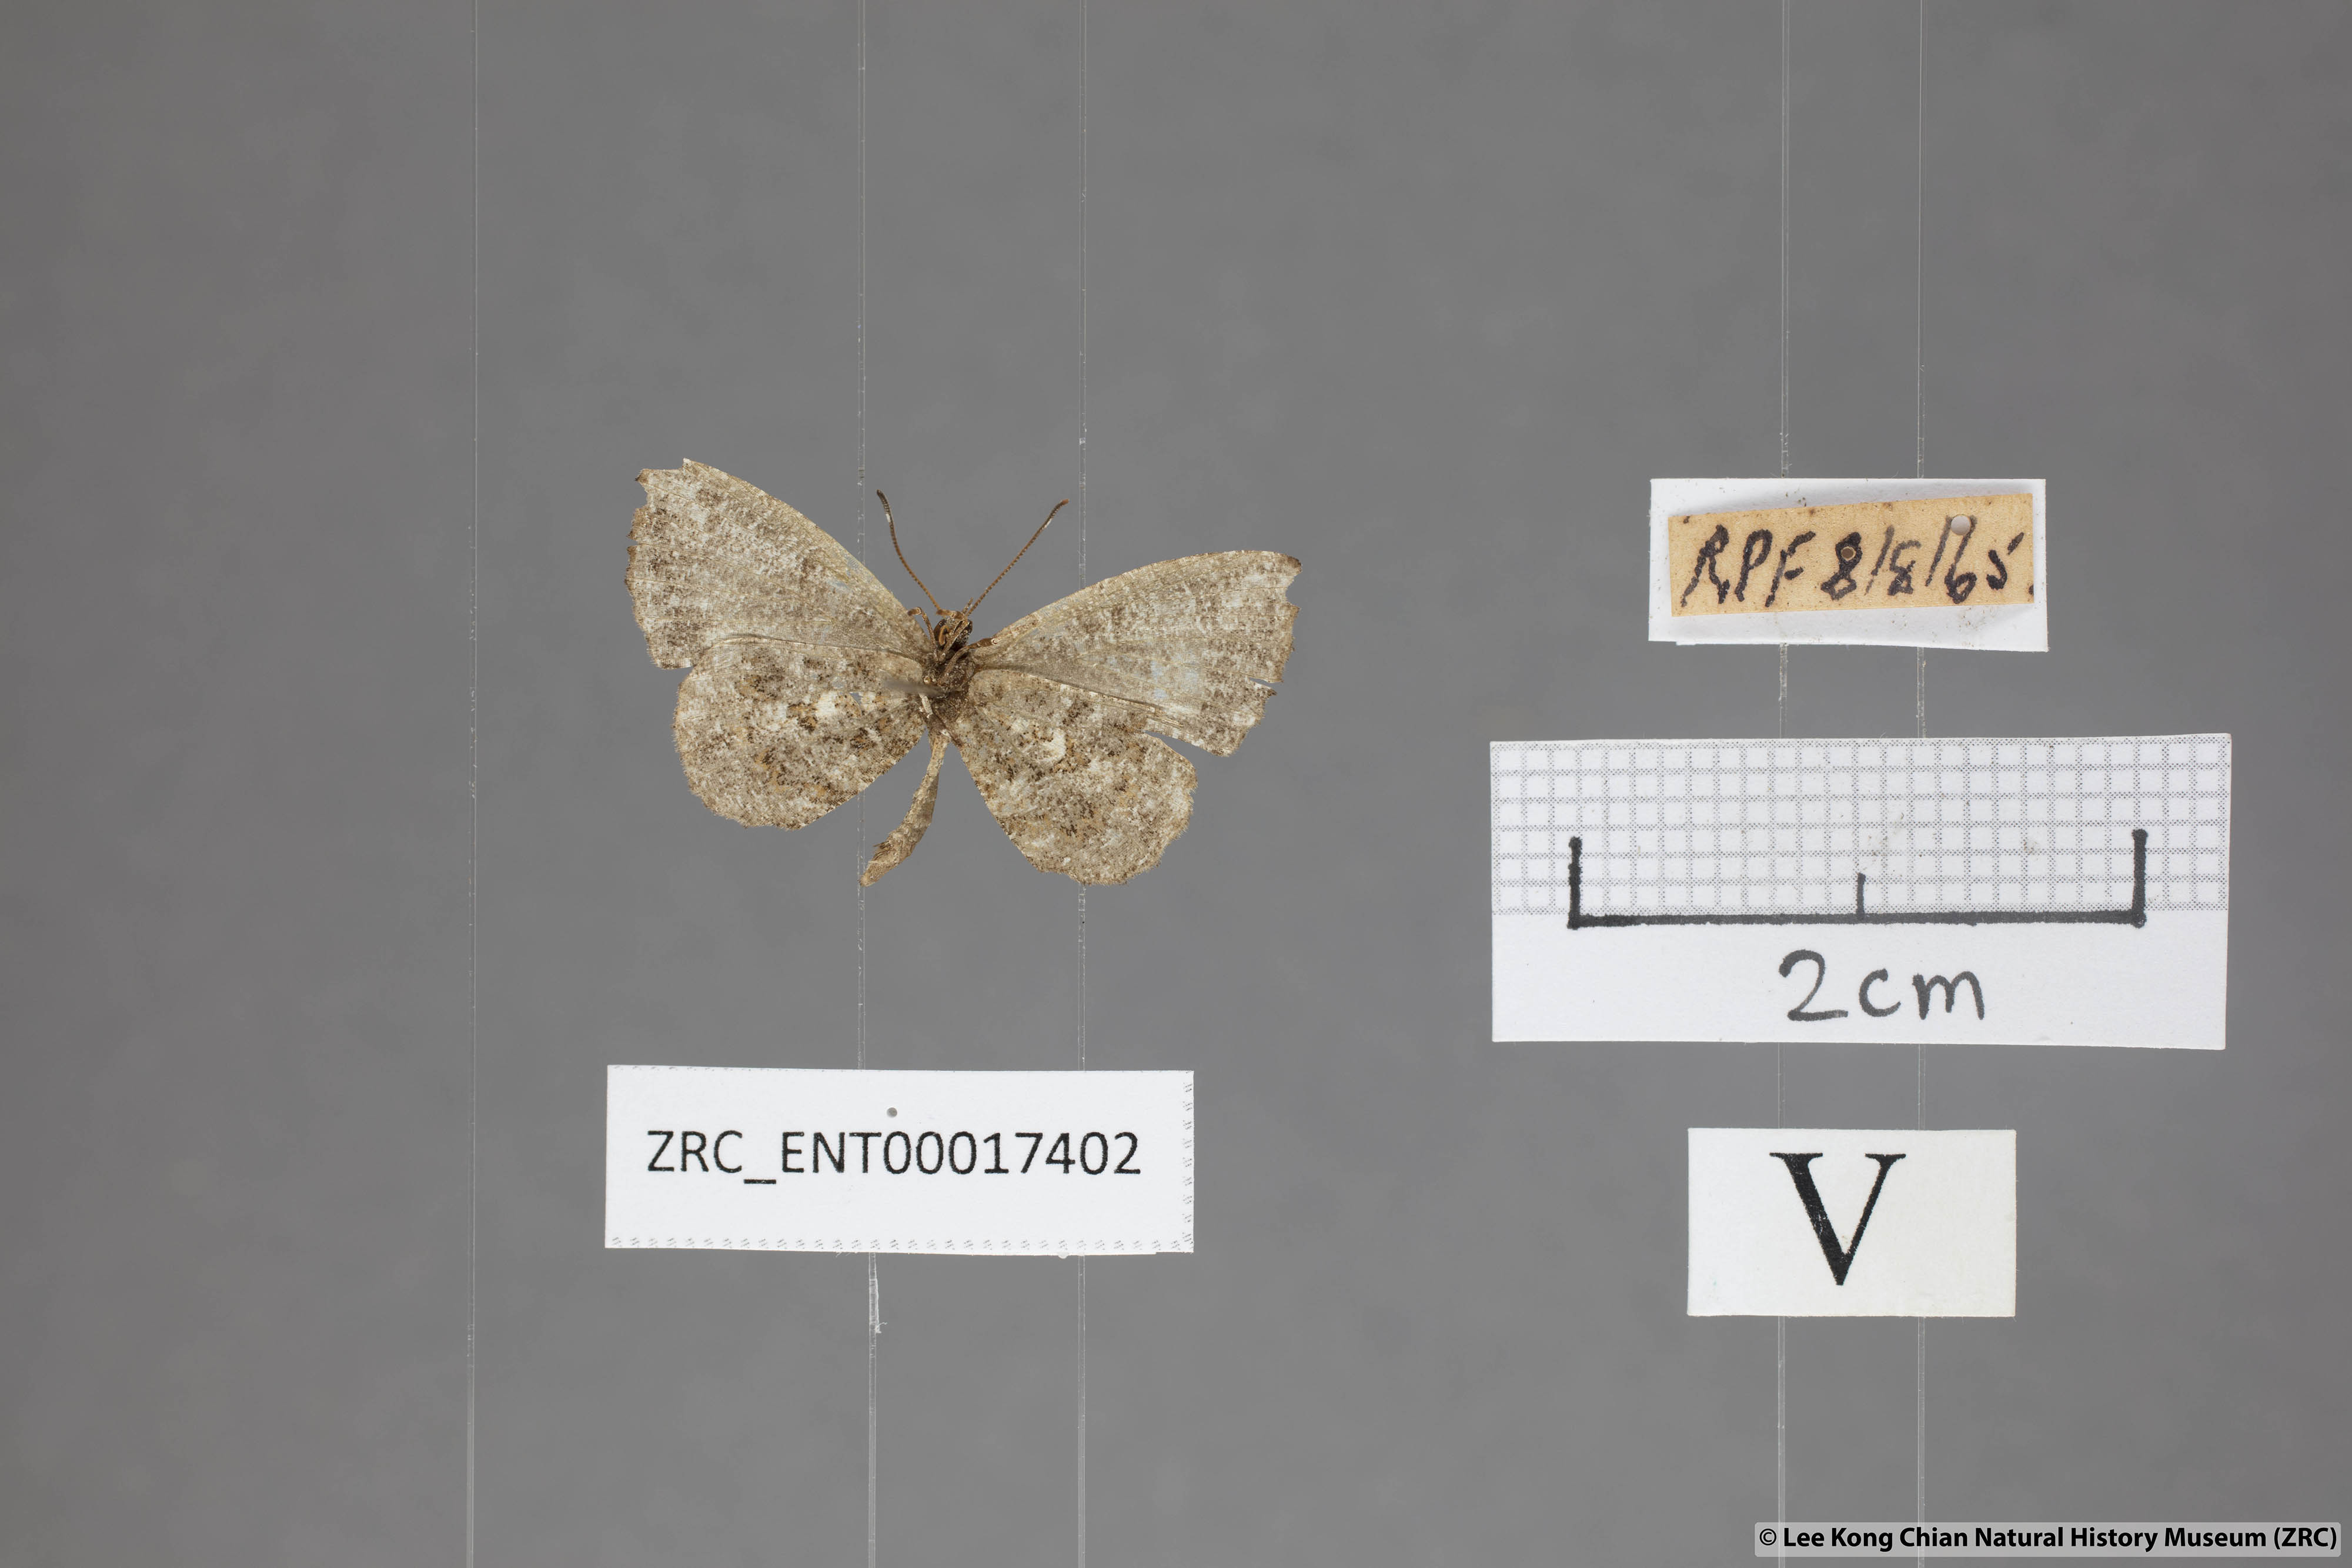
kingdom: Animalia
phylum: Arthropoda
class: Insecta
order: Lepidoptera
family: Lycaenidae
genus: Logania
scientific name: Logania marmorata
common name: Pale mottle
